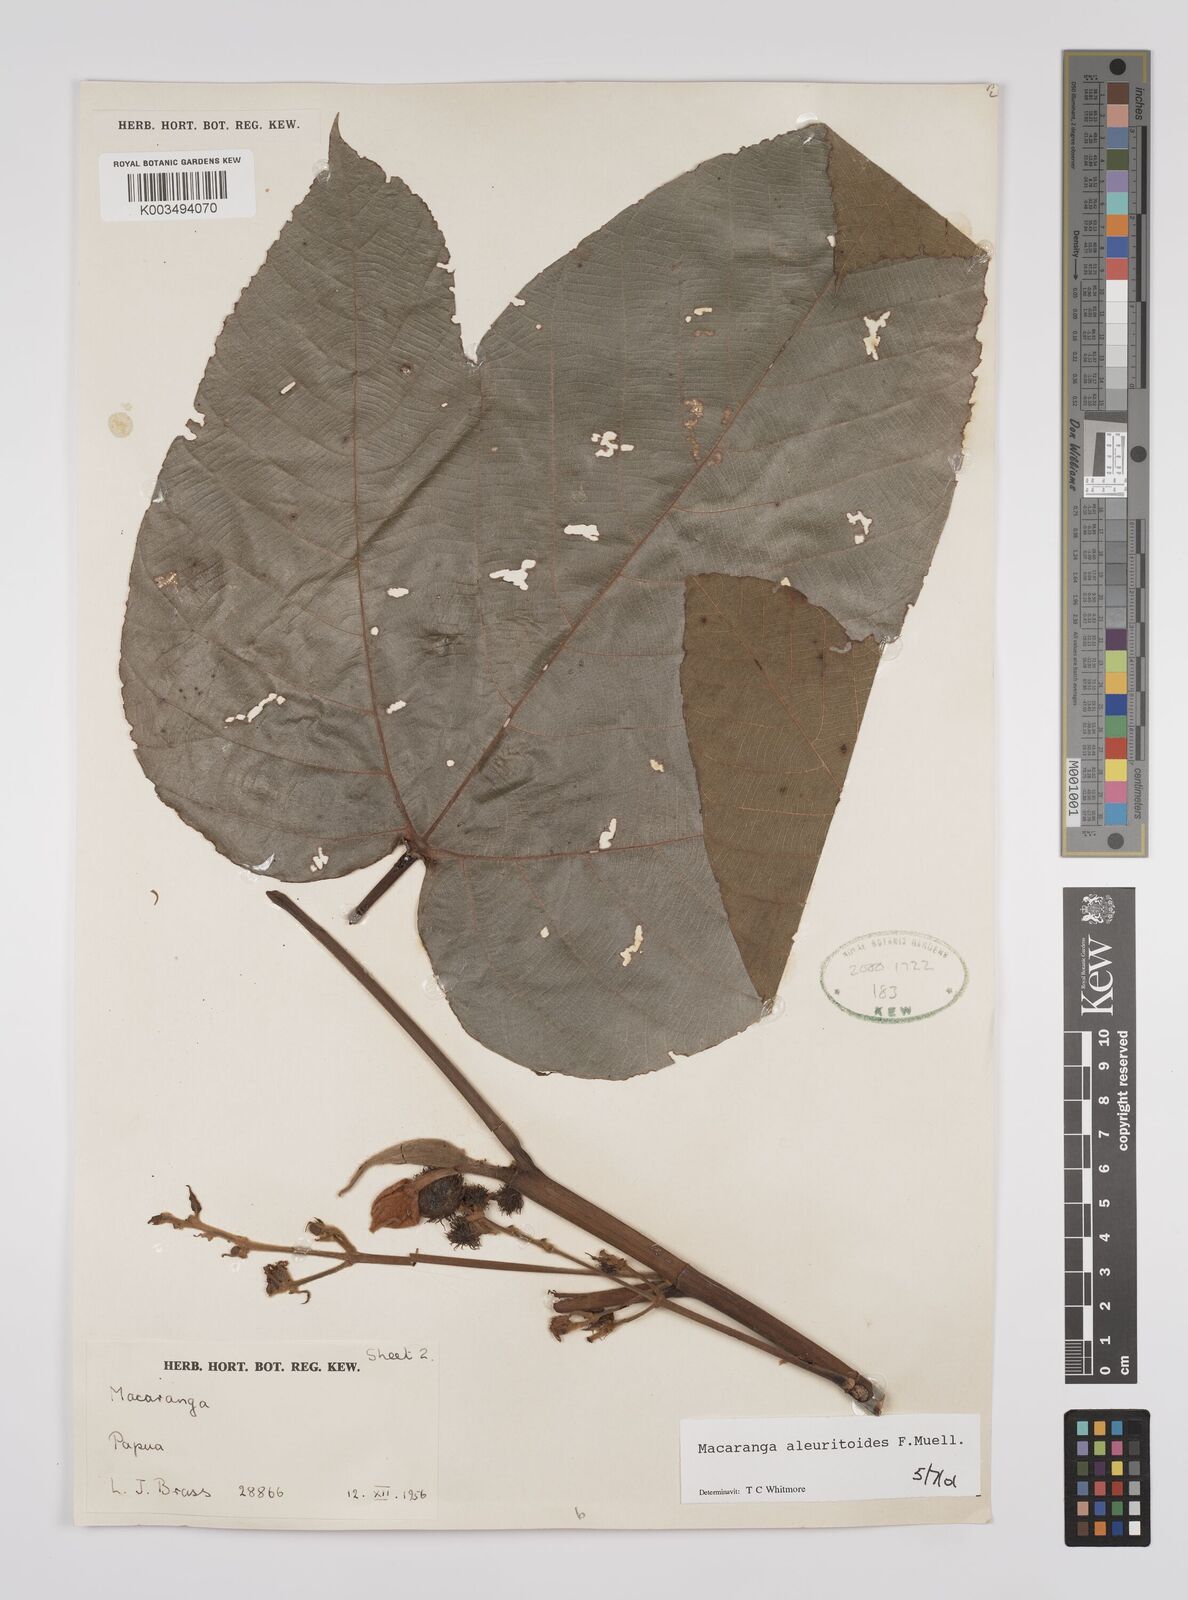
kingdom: Plantae
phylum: Tracheophyta
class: Magnoliopsida
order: Malpighiales
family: Euphorbiaceae
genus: Macaranga
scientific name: Macaranga aleuritoides
